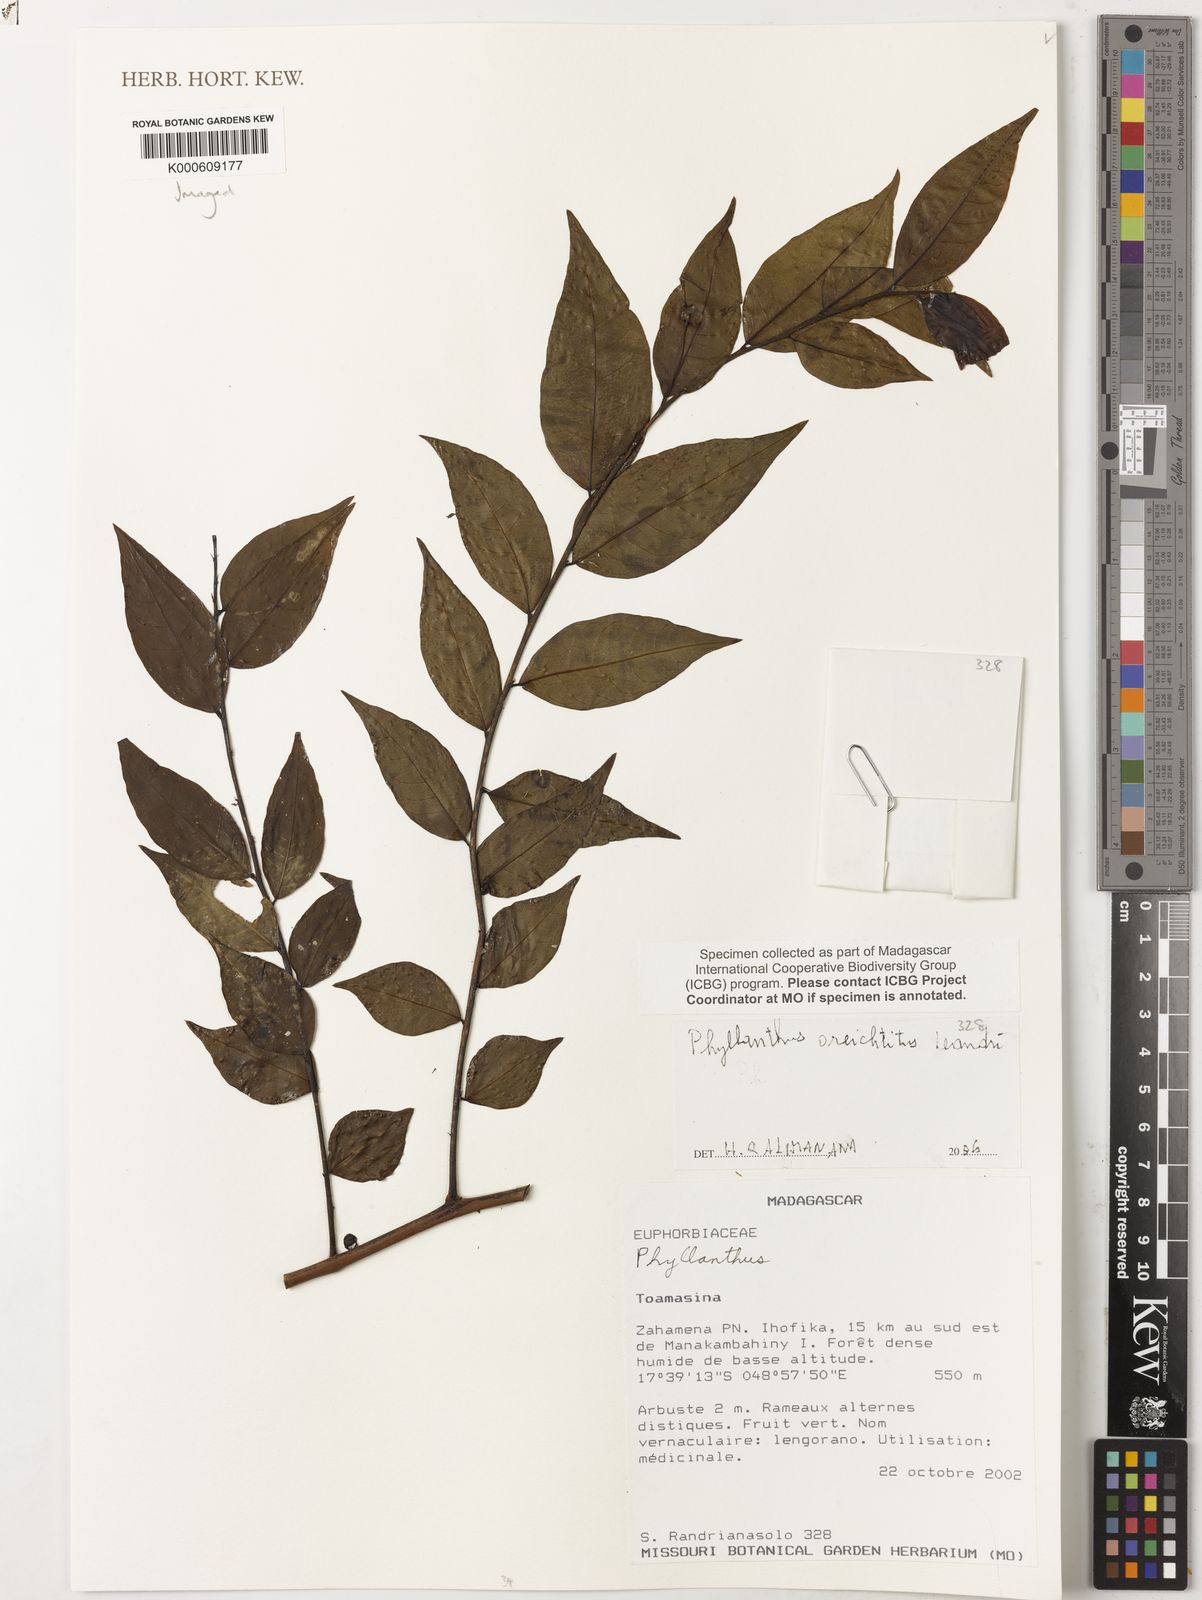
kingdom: Plantae
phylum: Tracheophyta
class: Magnoliopsida
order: Malpighiales
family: Phyllanthaceae
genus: Phyllanthus
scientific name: Phyllanthus oreichtitus
